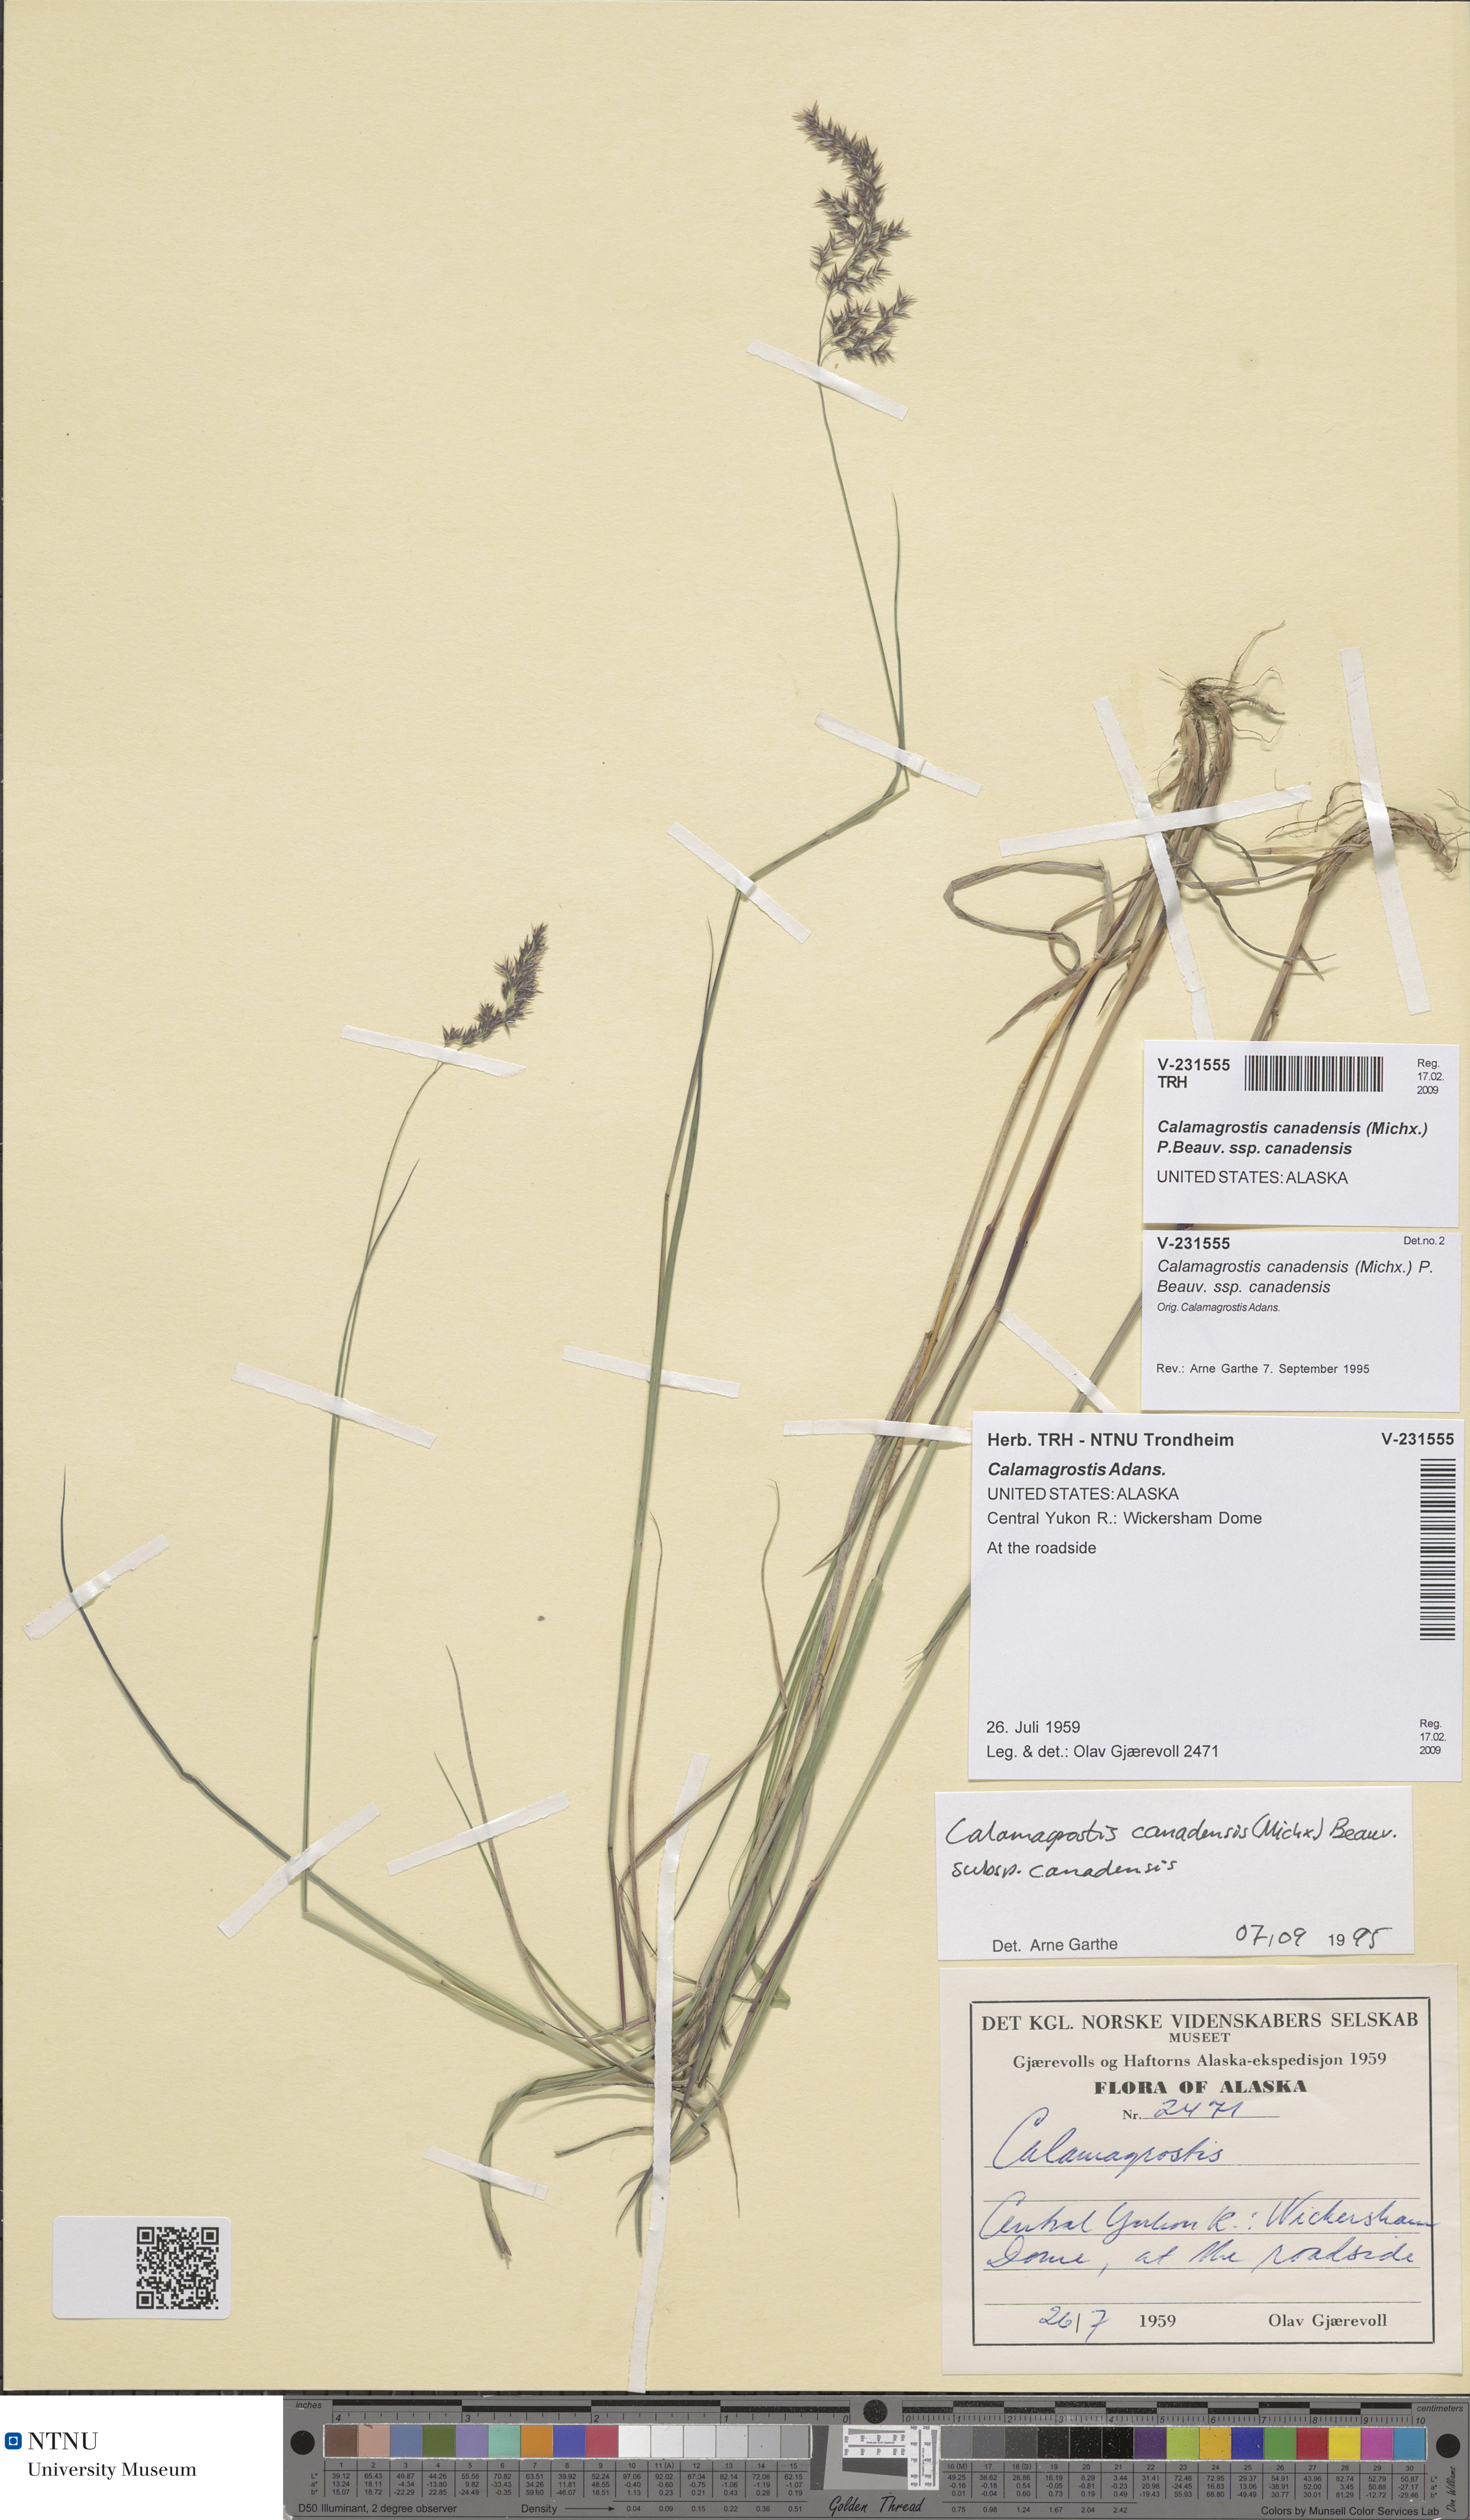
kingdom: Plantae
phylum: Tracheophyta
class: Liliopsida
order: Poales
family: Poaceae
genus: Calamagrostis
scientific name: Calamagrostis canadensis
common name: Canada bluejoint
